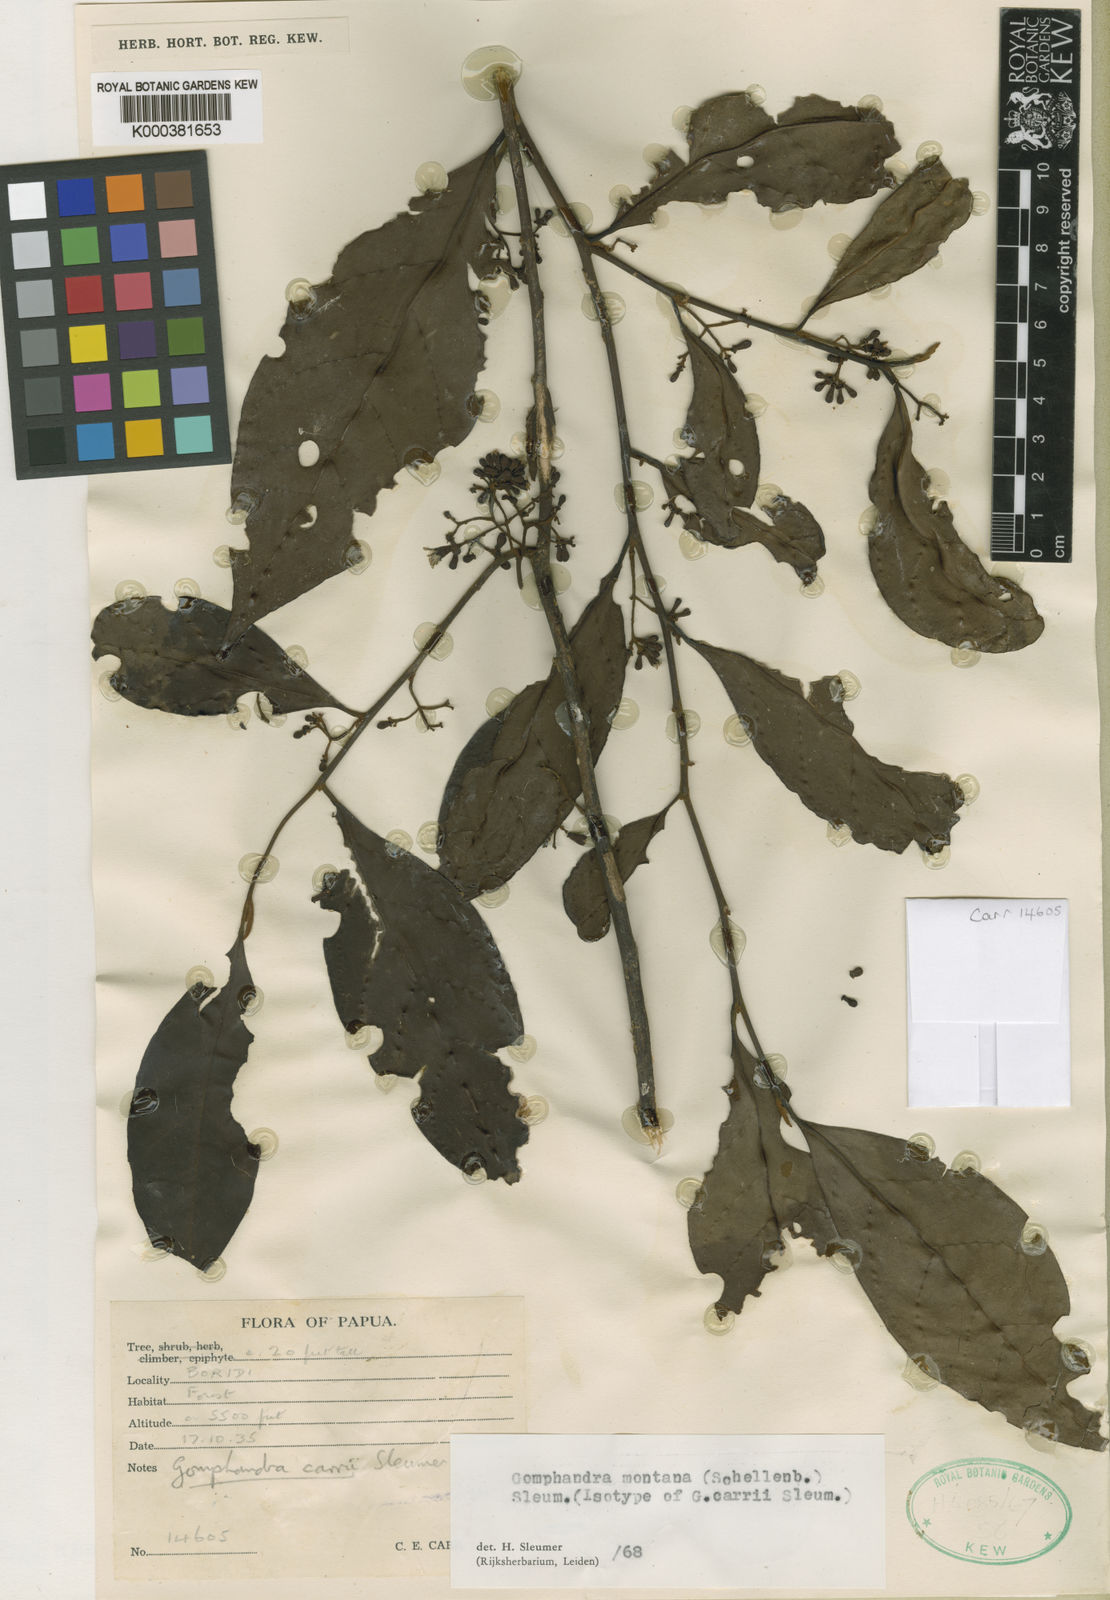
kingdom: Plantae
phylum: Tracheophyta
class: Magnoliopsida
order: Cardiopteridales
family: Stemonuraceae
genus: Gomphandra
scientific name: Gomphandra montana
